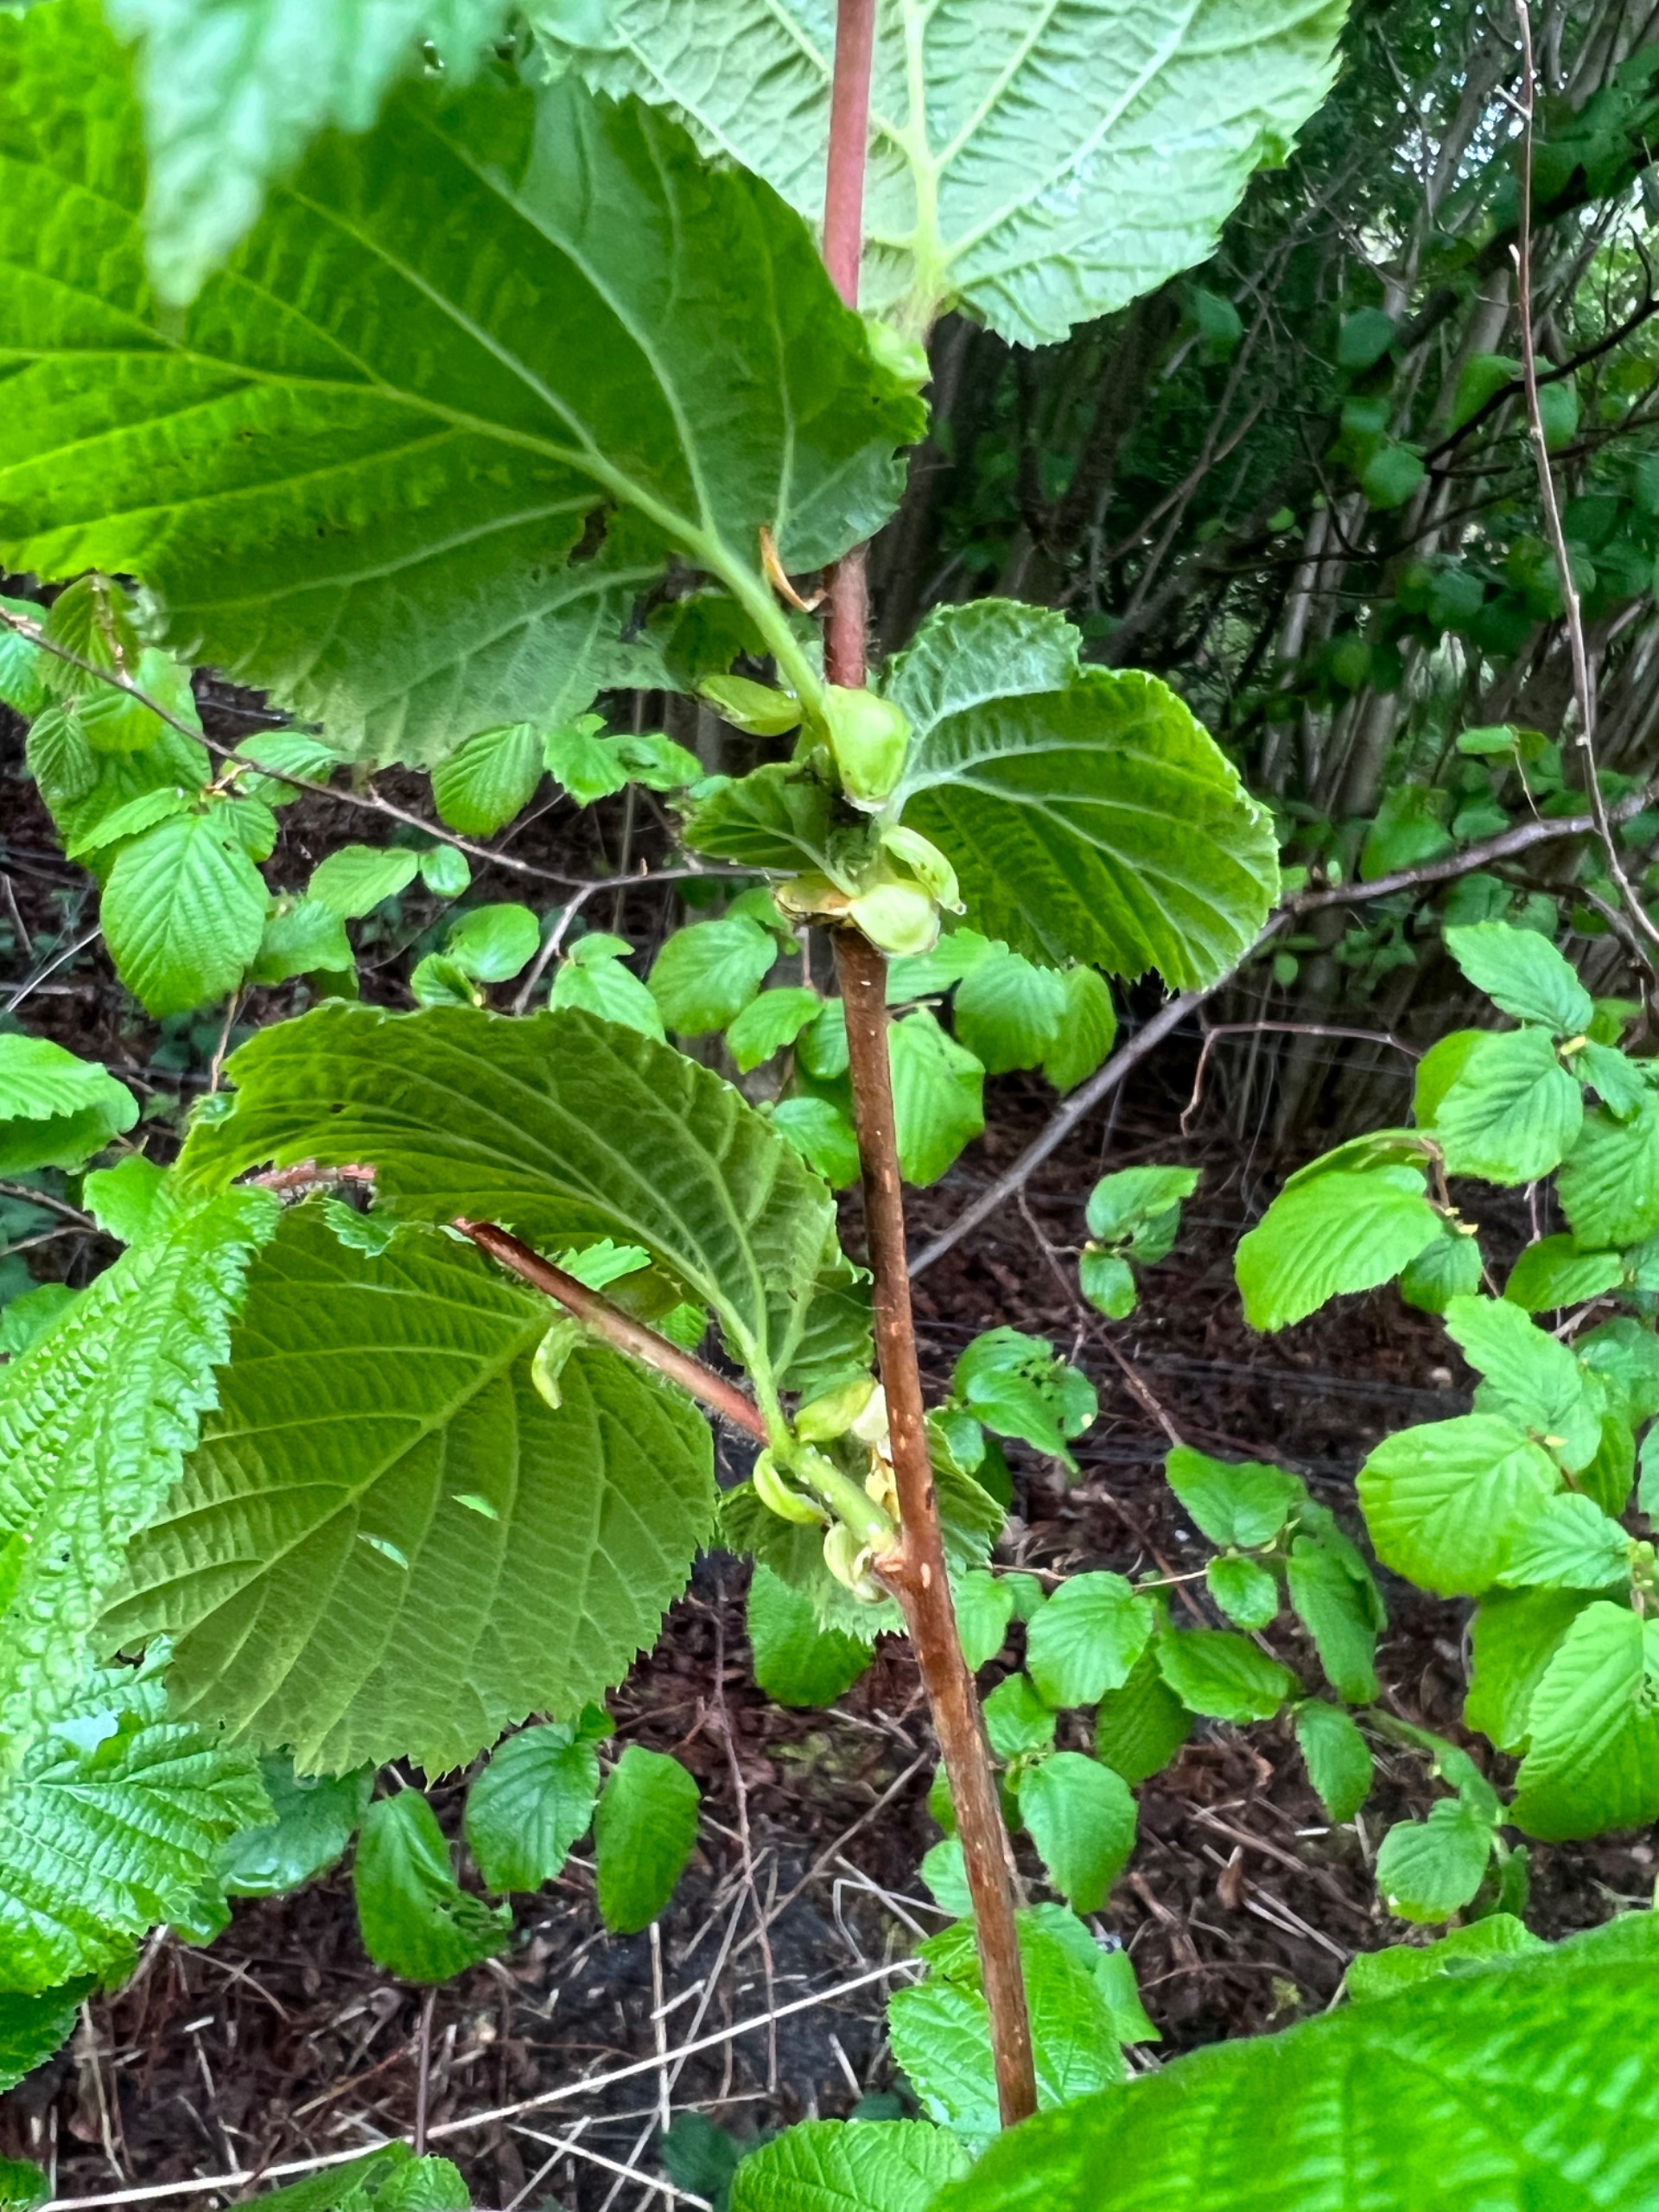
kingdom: Plantae
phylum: Tracheophyta
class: Magnoliopsida
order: Fagales
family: Betulaceae
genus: Corylus
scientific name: Corylus avellana
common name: Hassel
